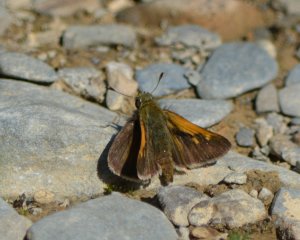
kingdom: Animalia
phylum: Arthropoda
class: Insecta
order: Lepidoptera
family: Hesperiidae
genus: Polites
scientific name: Polites themistocles
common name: Tawny-edged Skipper
